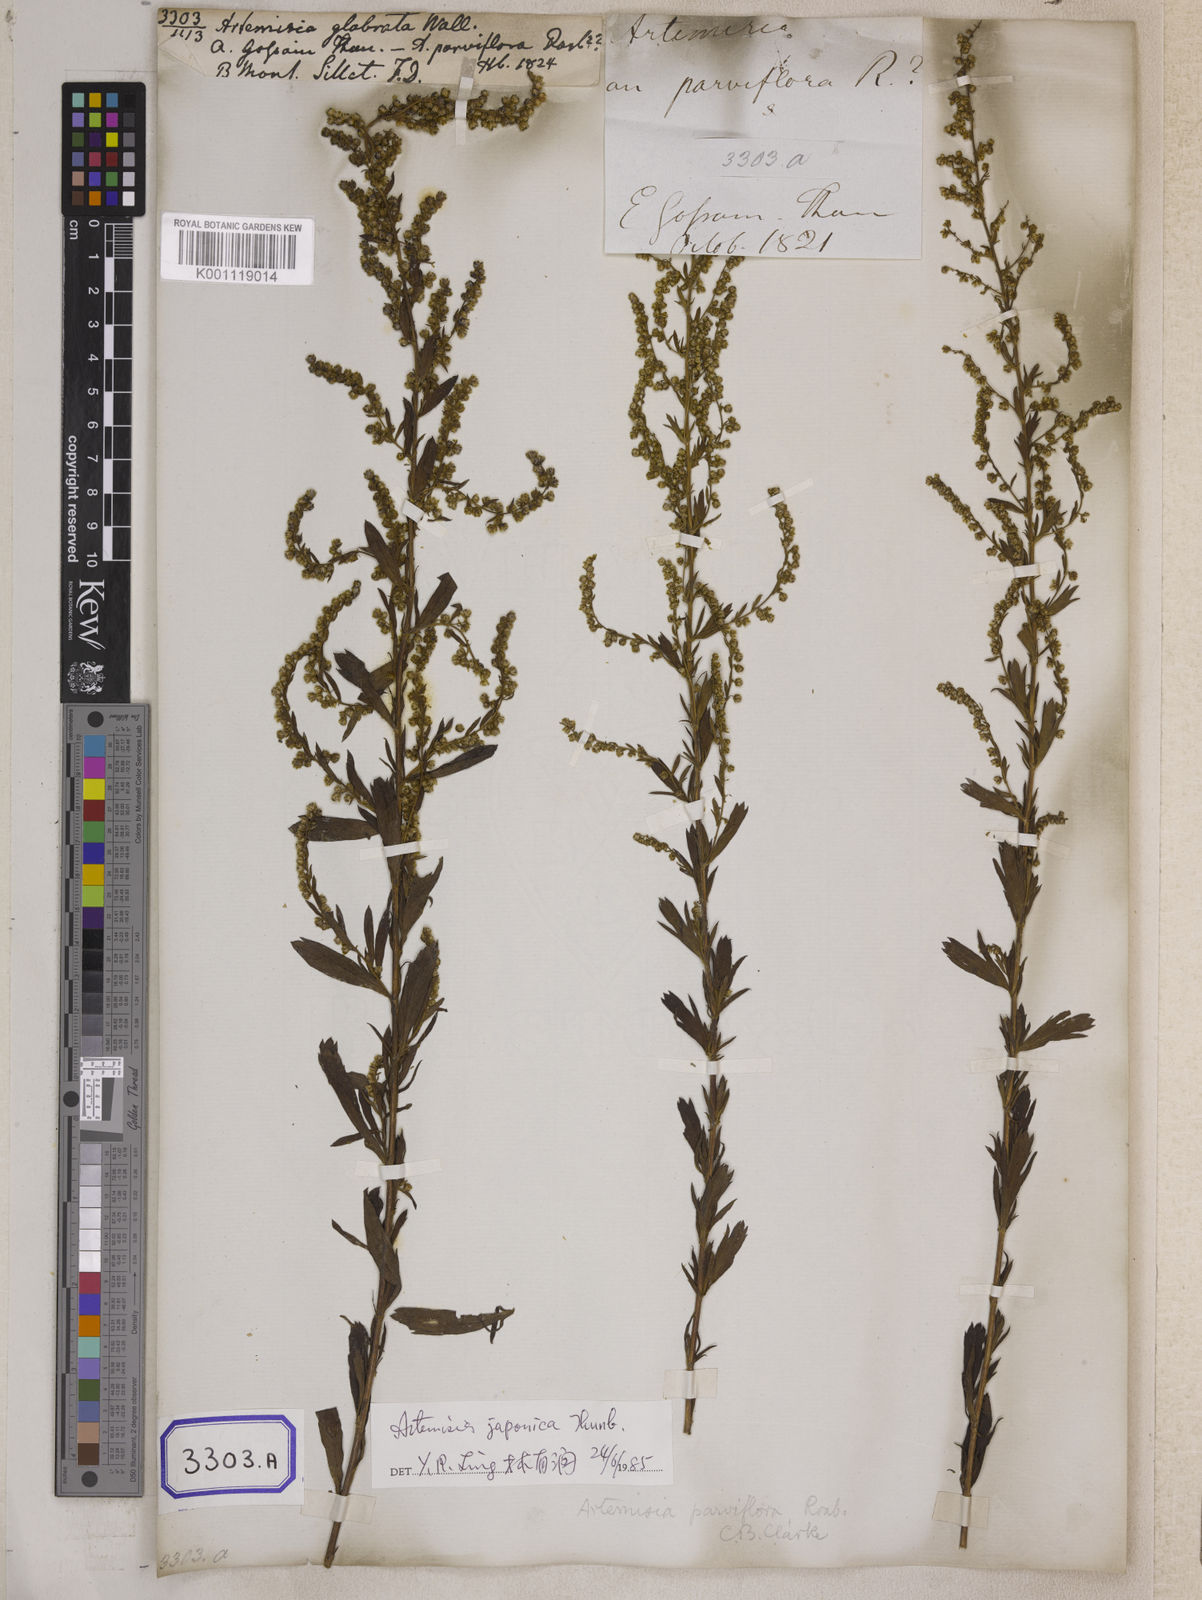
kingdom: Plantae
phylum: Tracheophyta
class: Magnoliopsida
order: Asterales
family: Asteraceae
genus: Artemisia
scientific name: Artemisia
